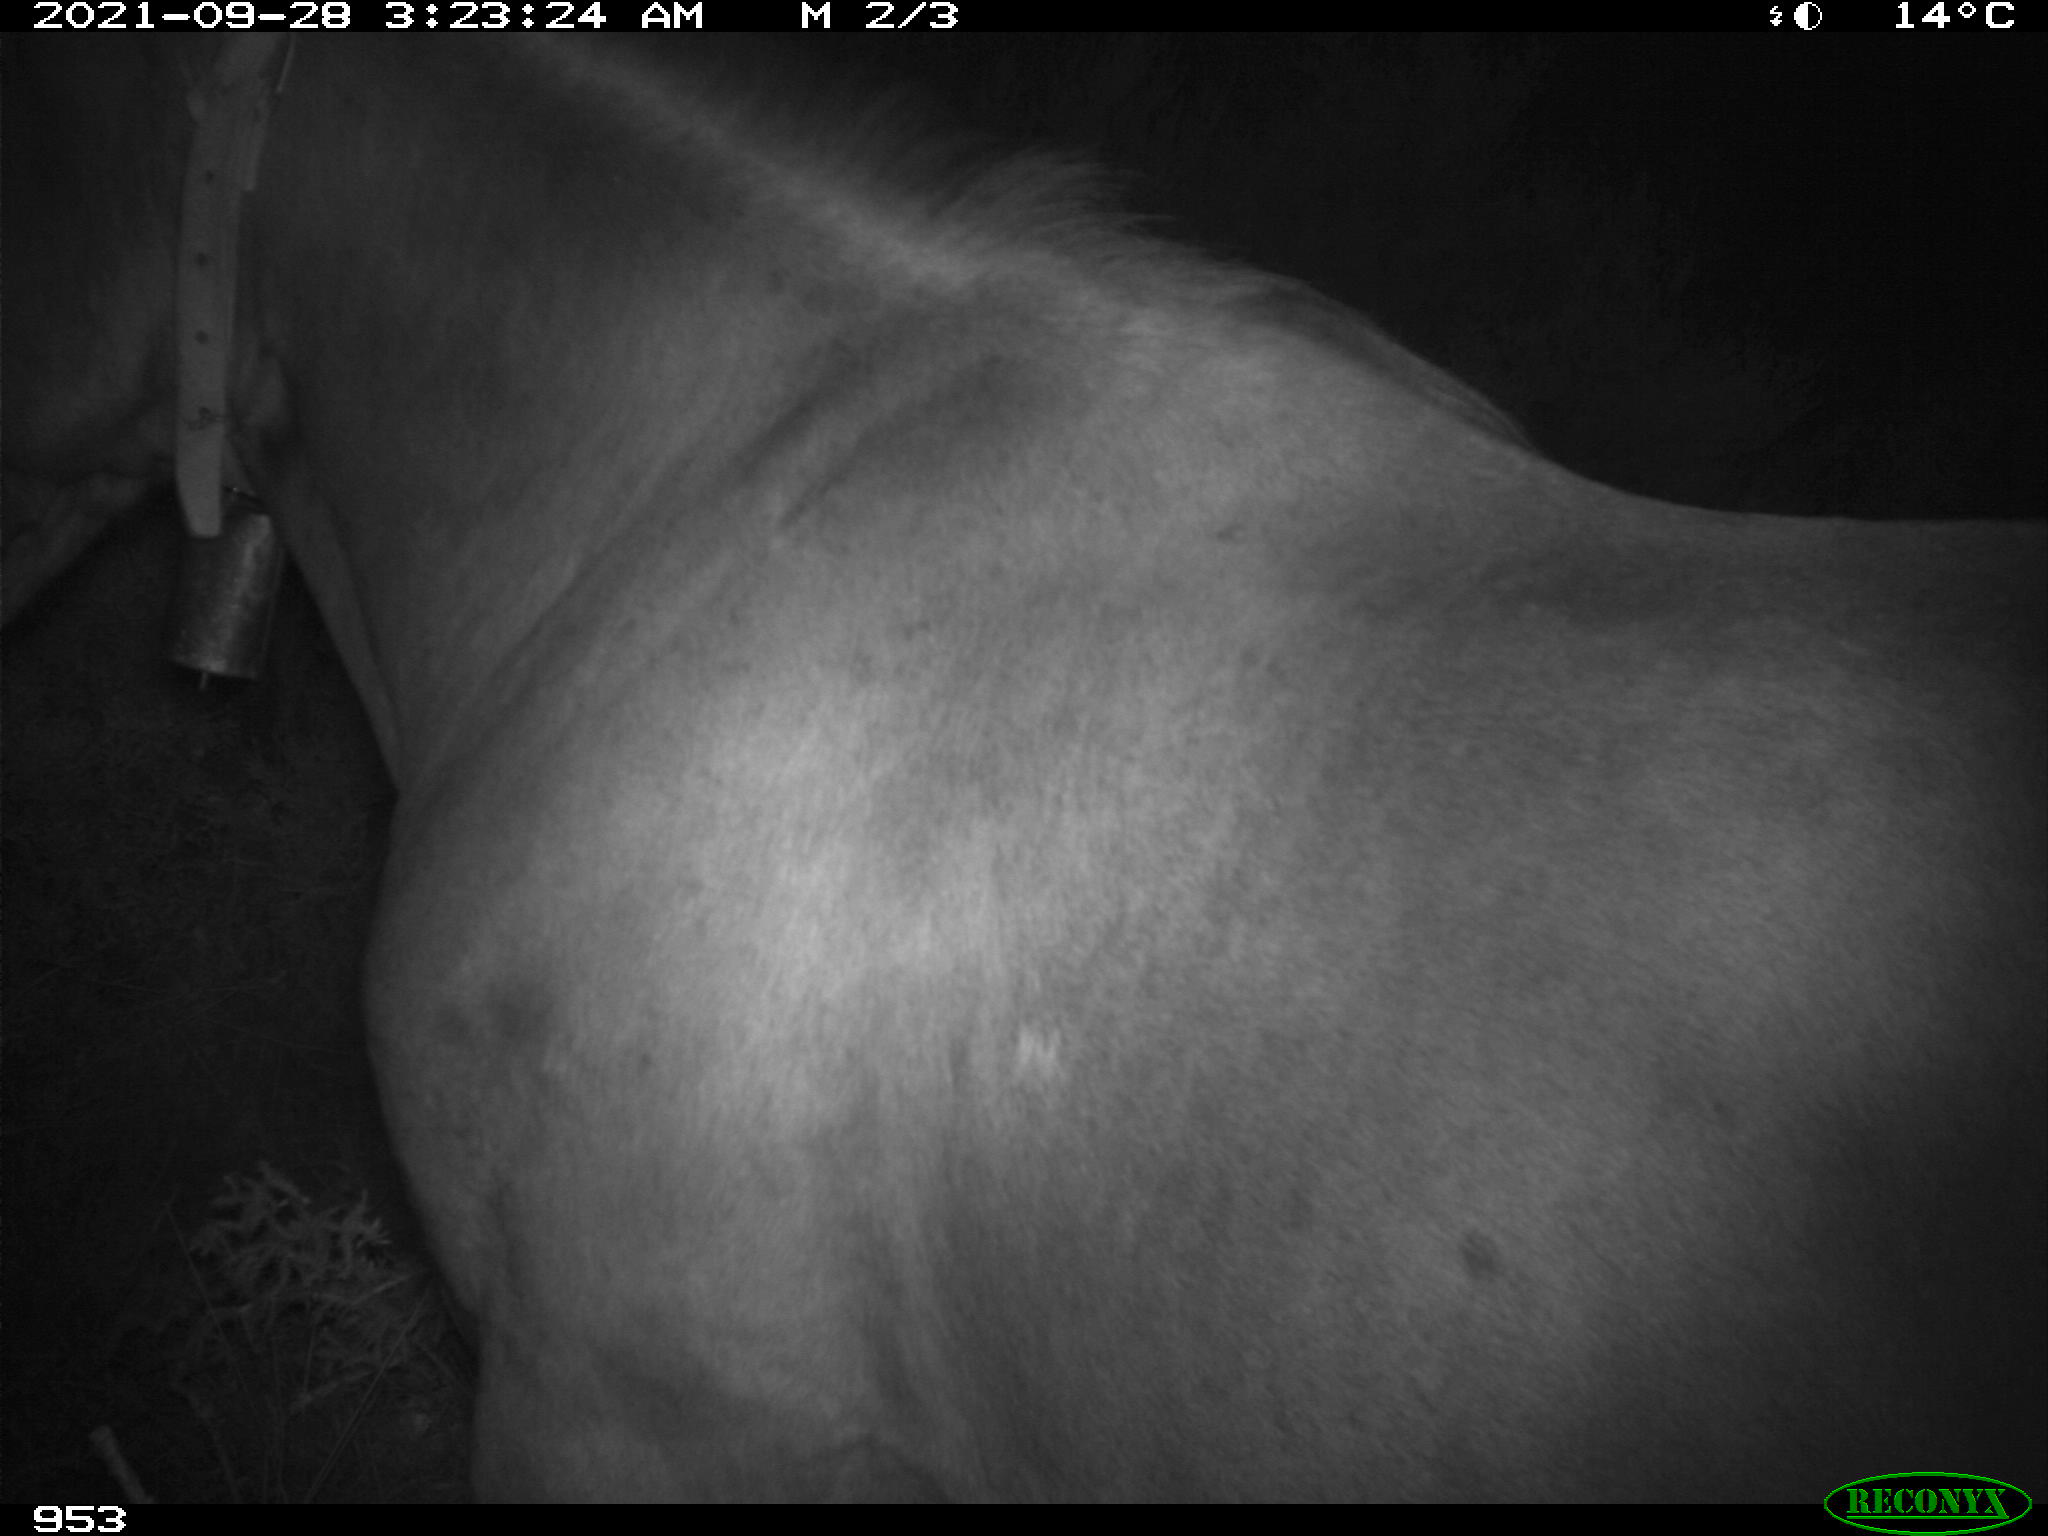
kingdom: Animalia
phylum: Chordata
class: Mammalia
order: Perissodactyla
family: Equidae
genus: Equus
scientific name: Equus caballus
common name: Horse
